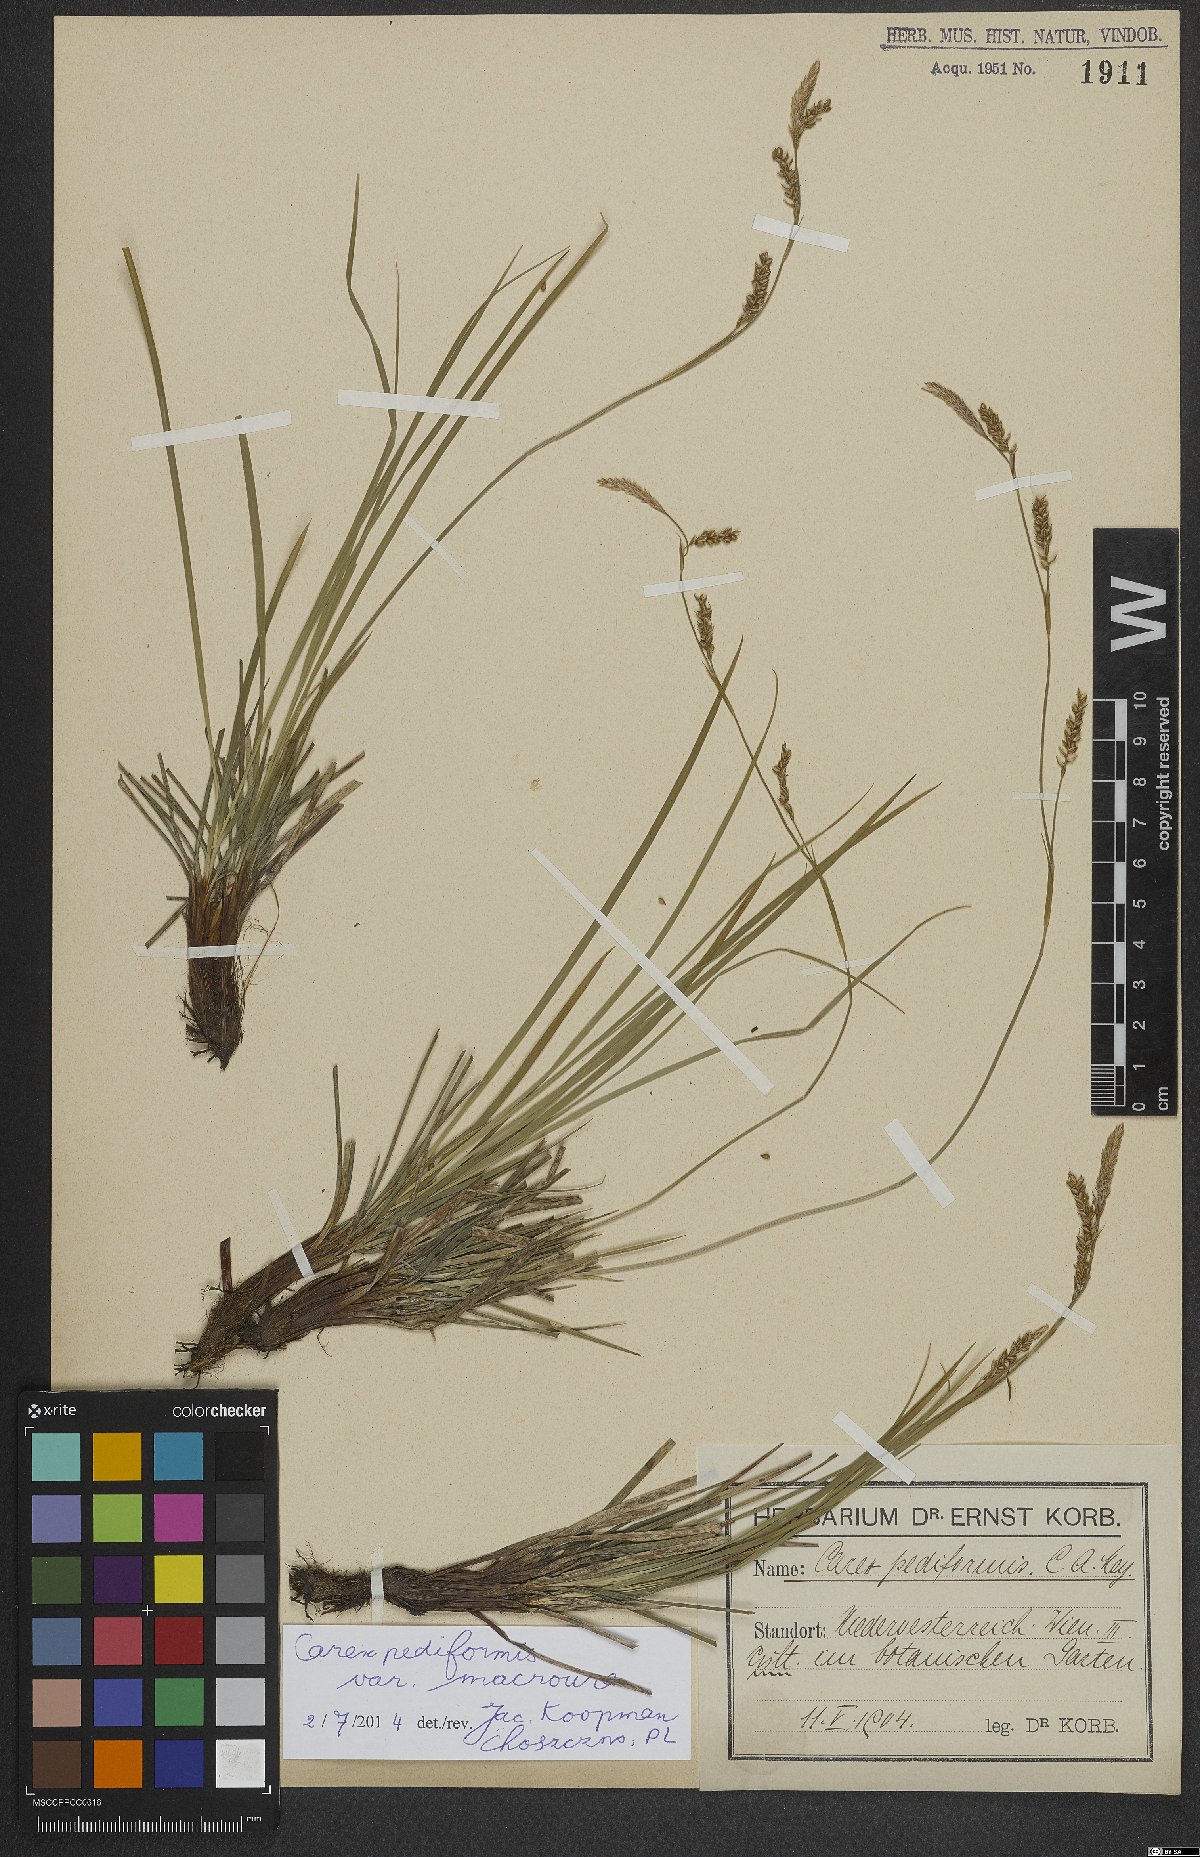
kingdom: Plantae
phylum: Tracheophyta
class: Liliopsida
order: Poales
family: Cyperaceae
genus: Carex
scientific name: Carex pediformis
